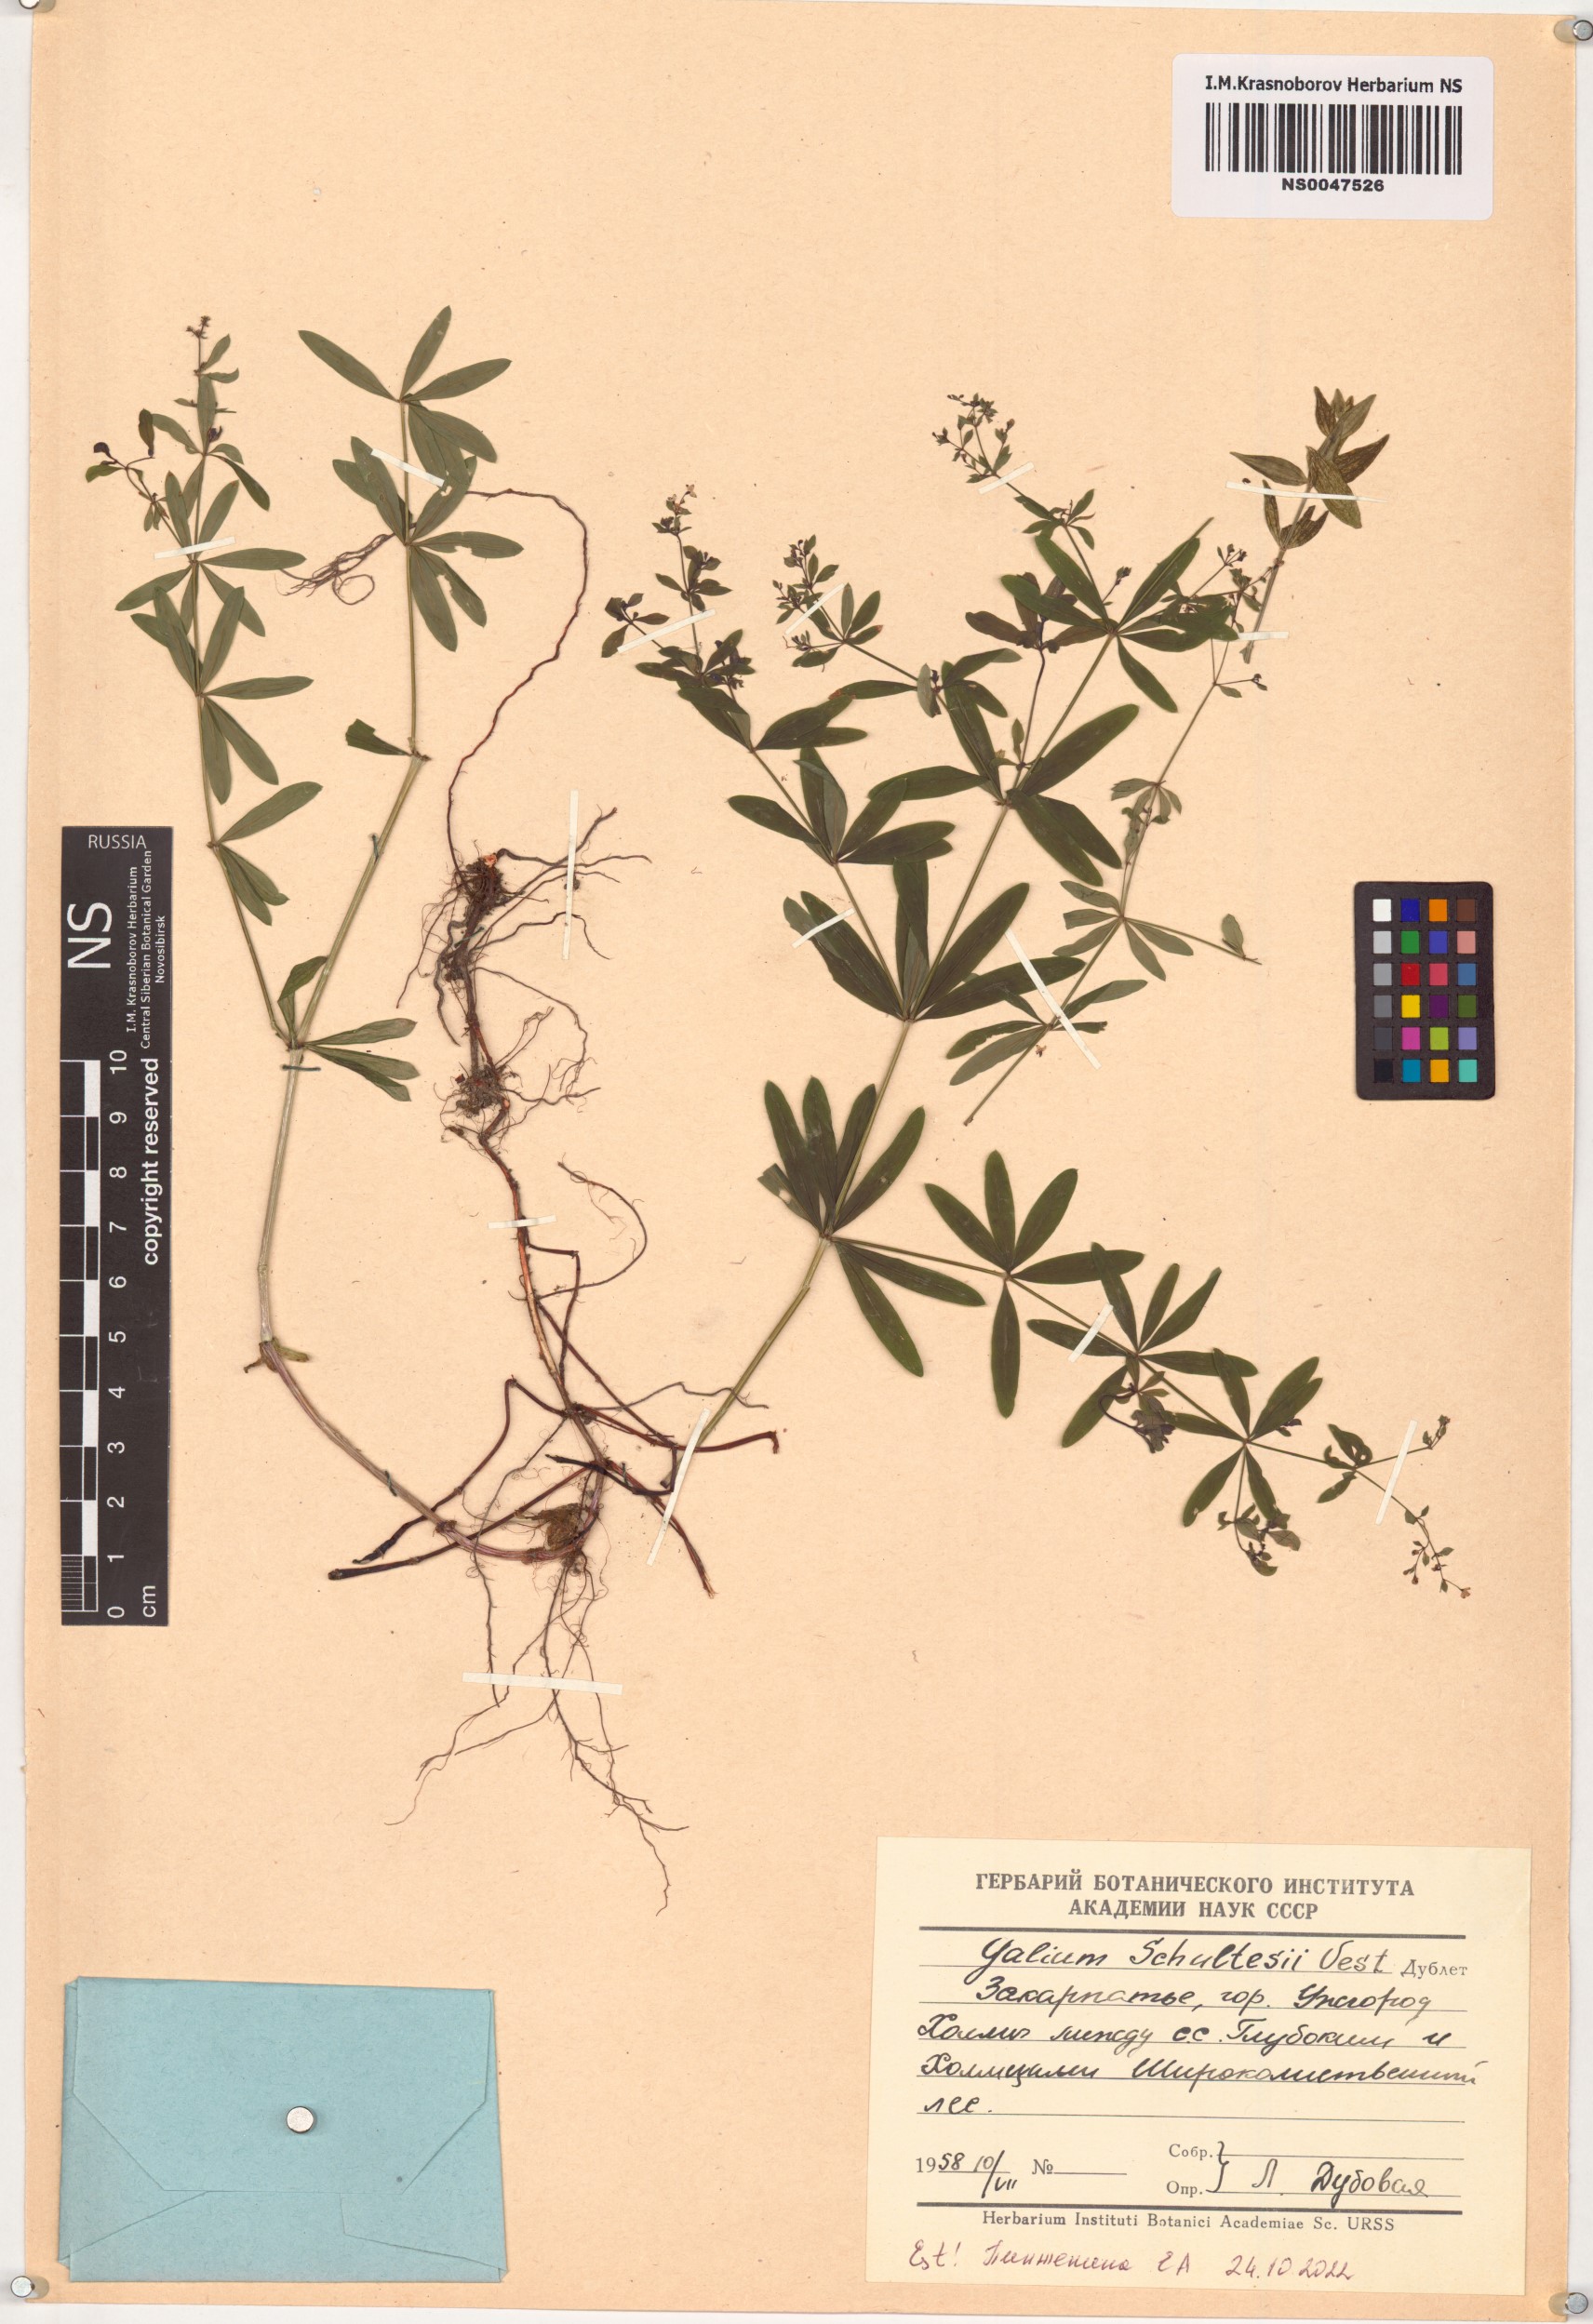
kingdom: Plantae
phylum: Tracheophyta
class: Magnoliopsida
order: Gentianales
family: Rubiaceae
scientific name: Rubiaceae
